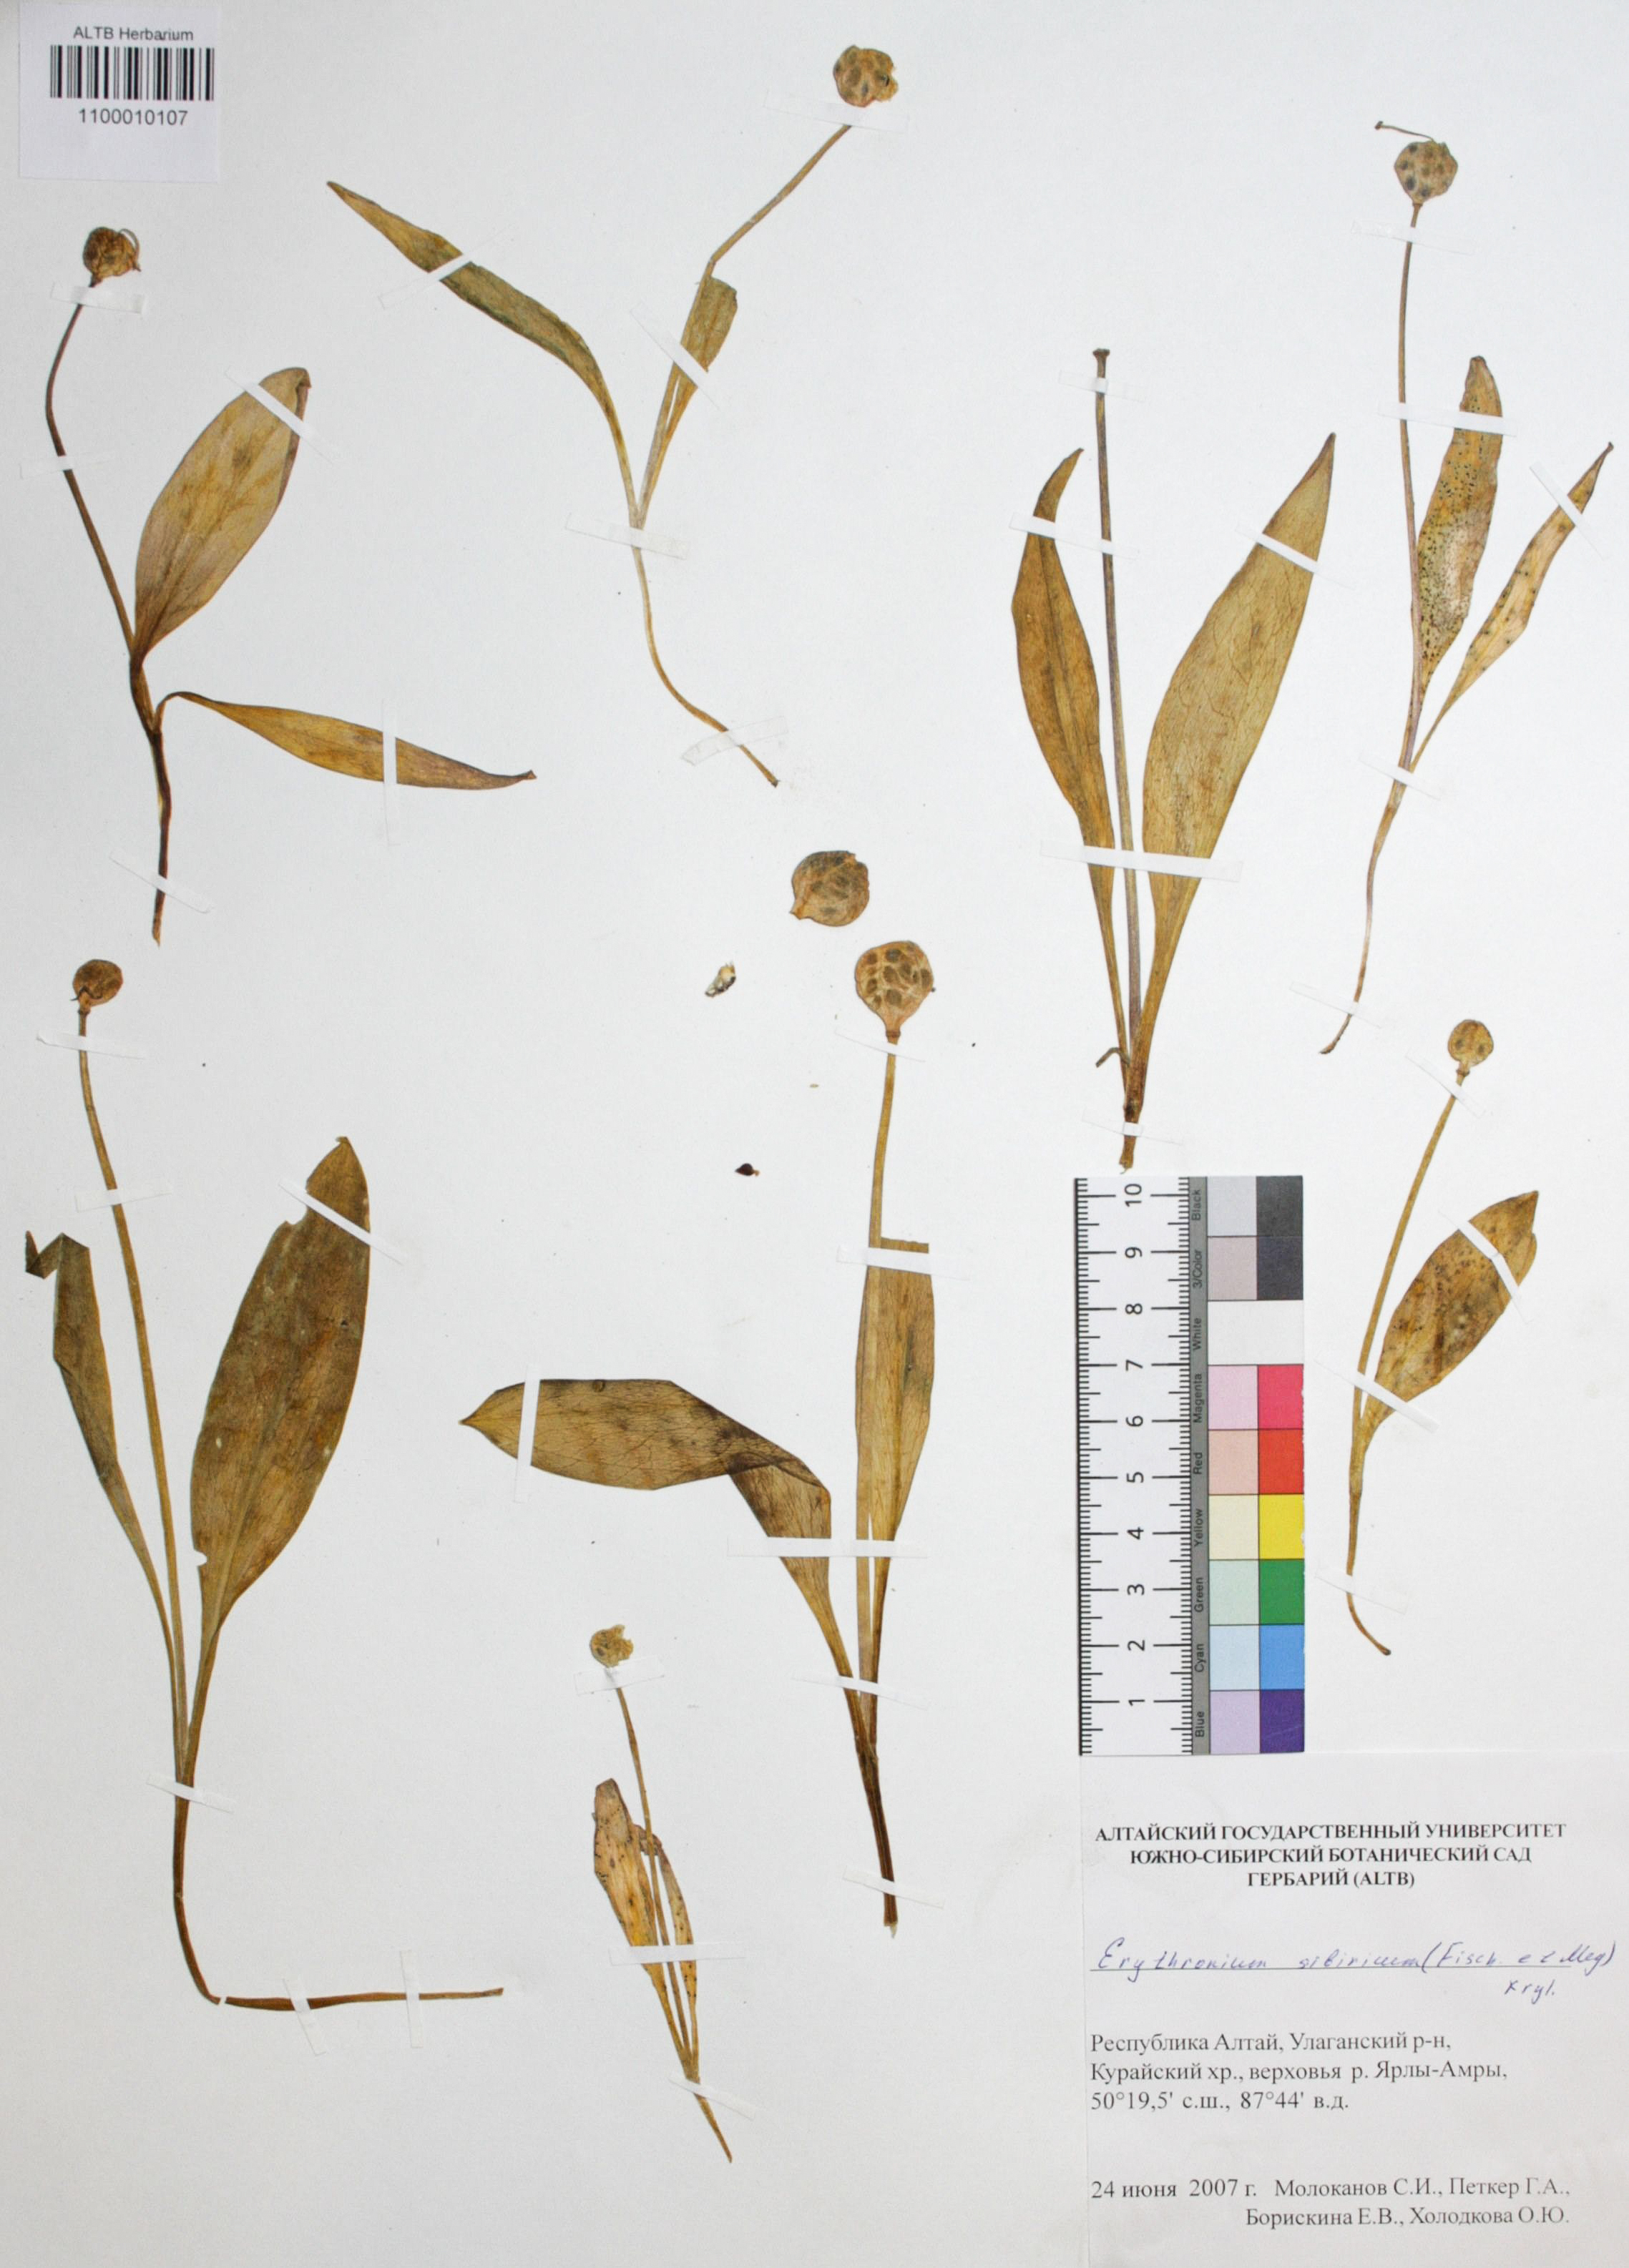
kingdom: Plantae
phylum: Tracheophyta
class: Liliopsida
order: Liliales
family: Liliaceae
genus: Erythronium
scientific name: Erythronium sibiricum
